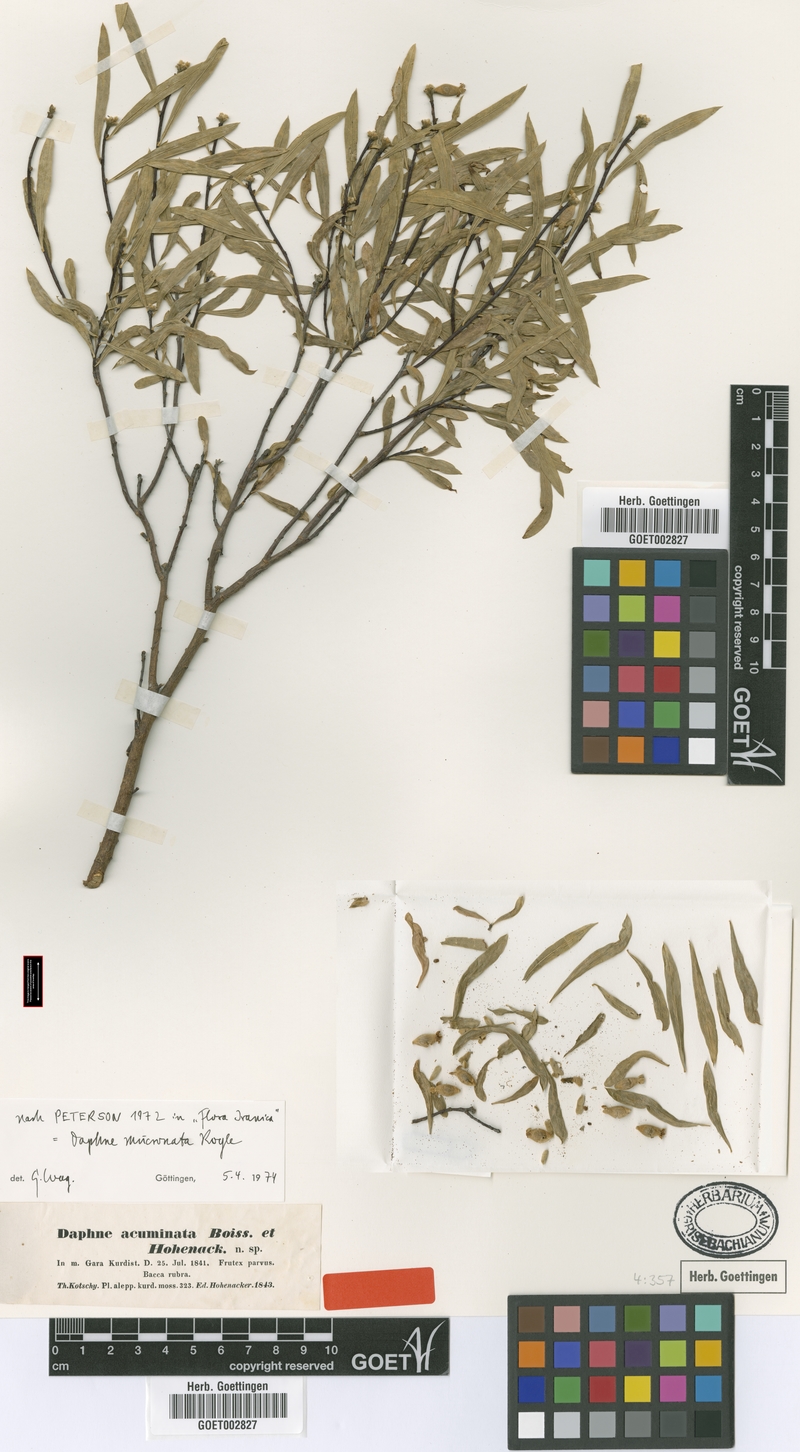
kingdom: Plantae
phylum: Tracheophyta
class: Magnoliopsida
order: Malvales
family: Thymelaeaceae
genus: Daphne
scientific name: Daphne mucronata
